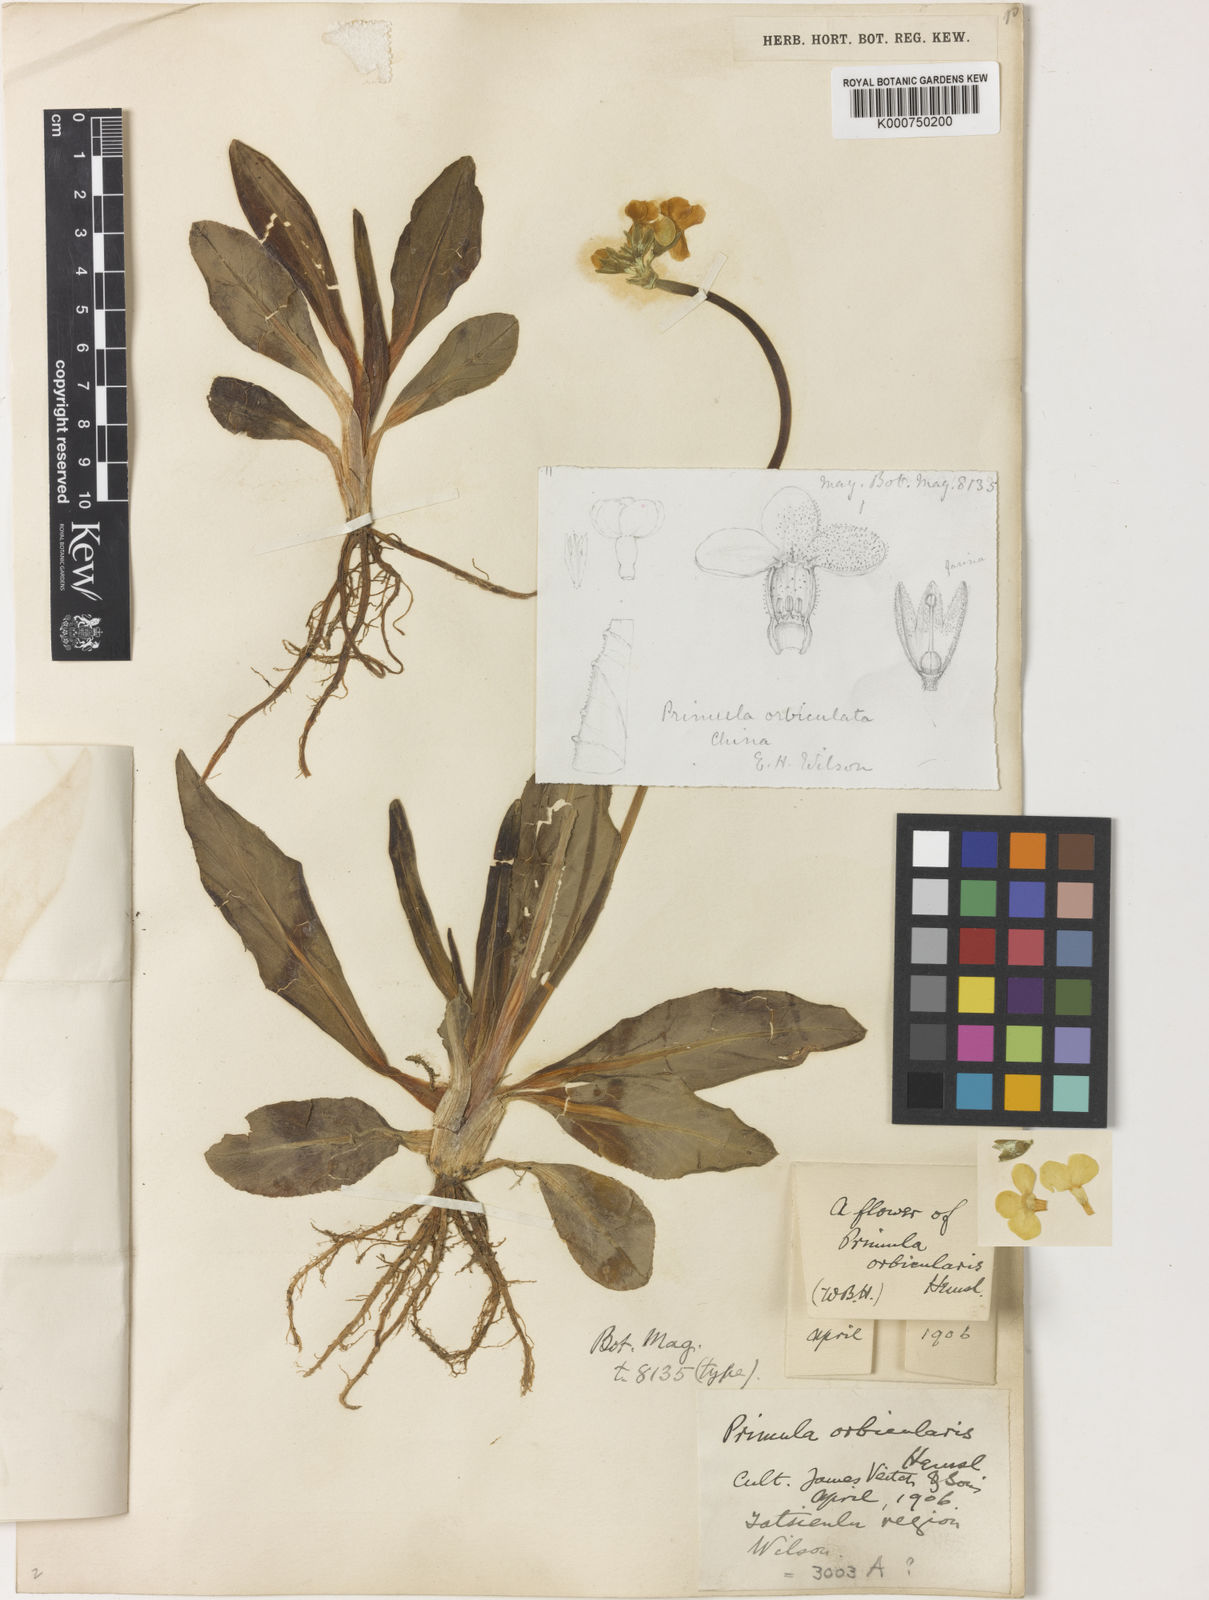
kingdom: Plantae
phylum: Tracheophyta
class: Magnoliopsida
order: Ericales
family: Primulaceae
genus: Primula
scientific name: Primula orbicularis
